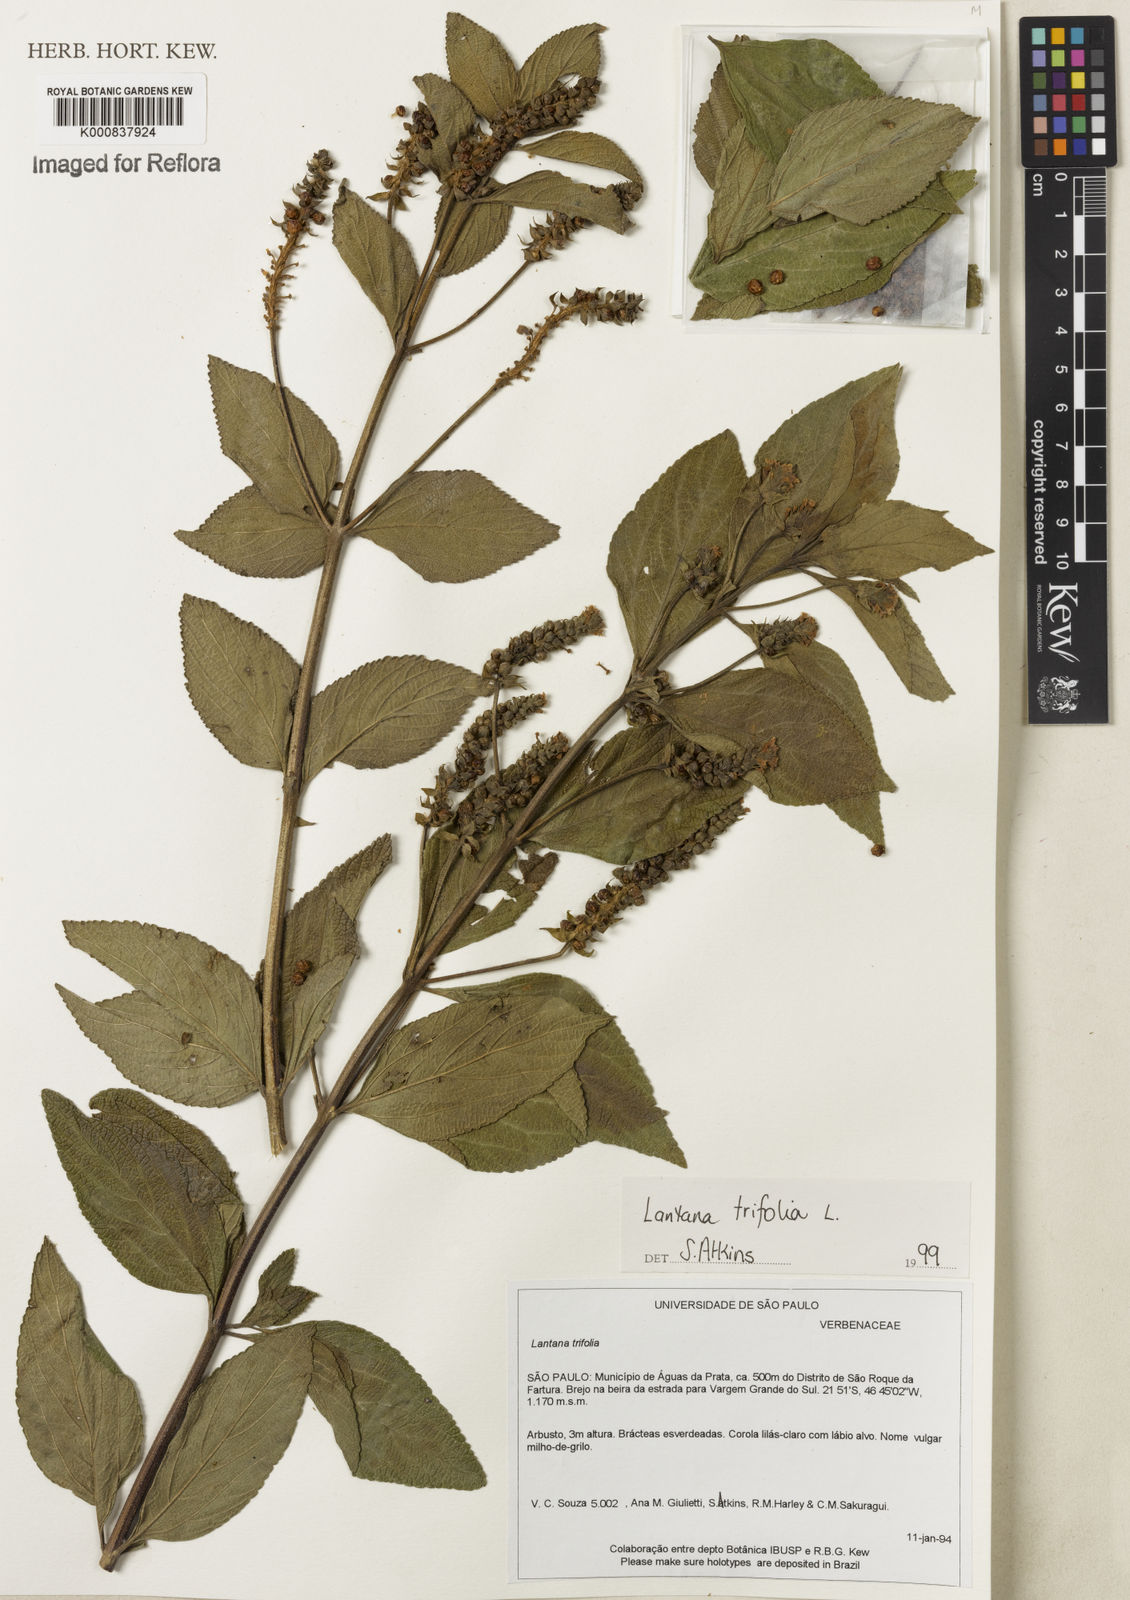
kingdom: Plantae
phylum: Tracheophyta
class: Magnoliopsida
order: Lamiales
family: Verbenaceae
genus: Lantana
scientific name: Lantana trifolia
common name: Sweet-sage
